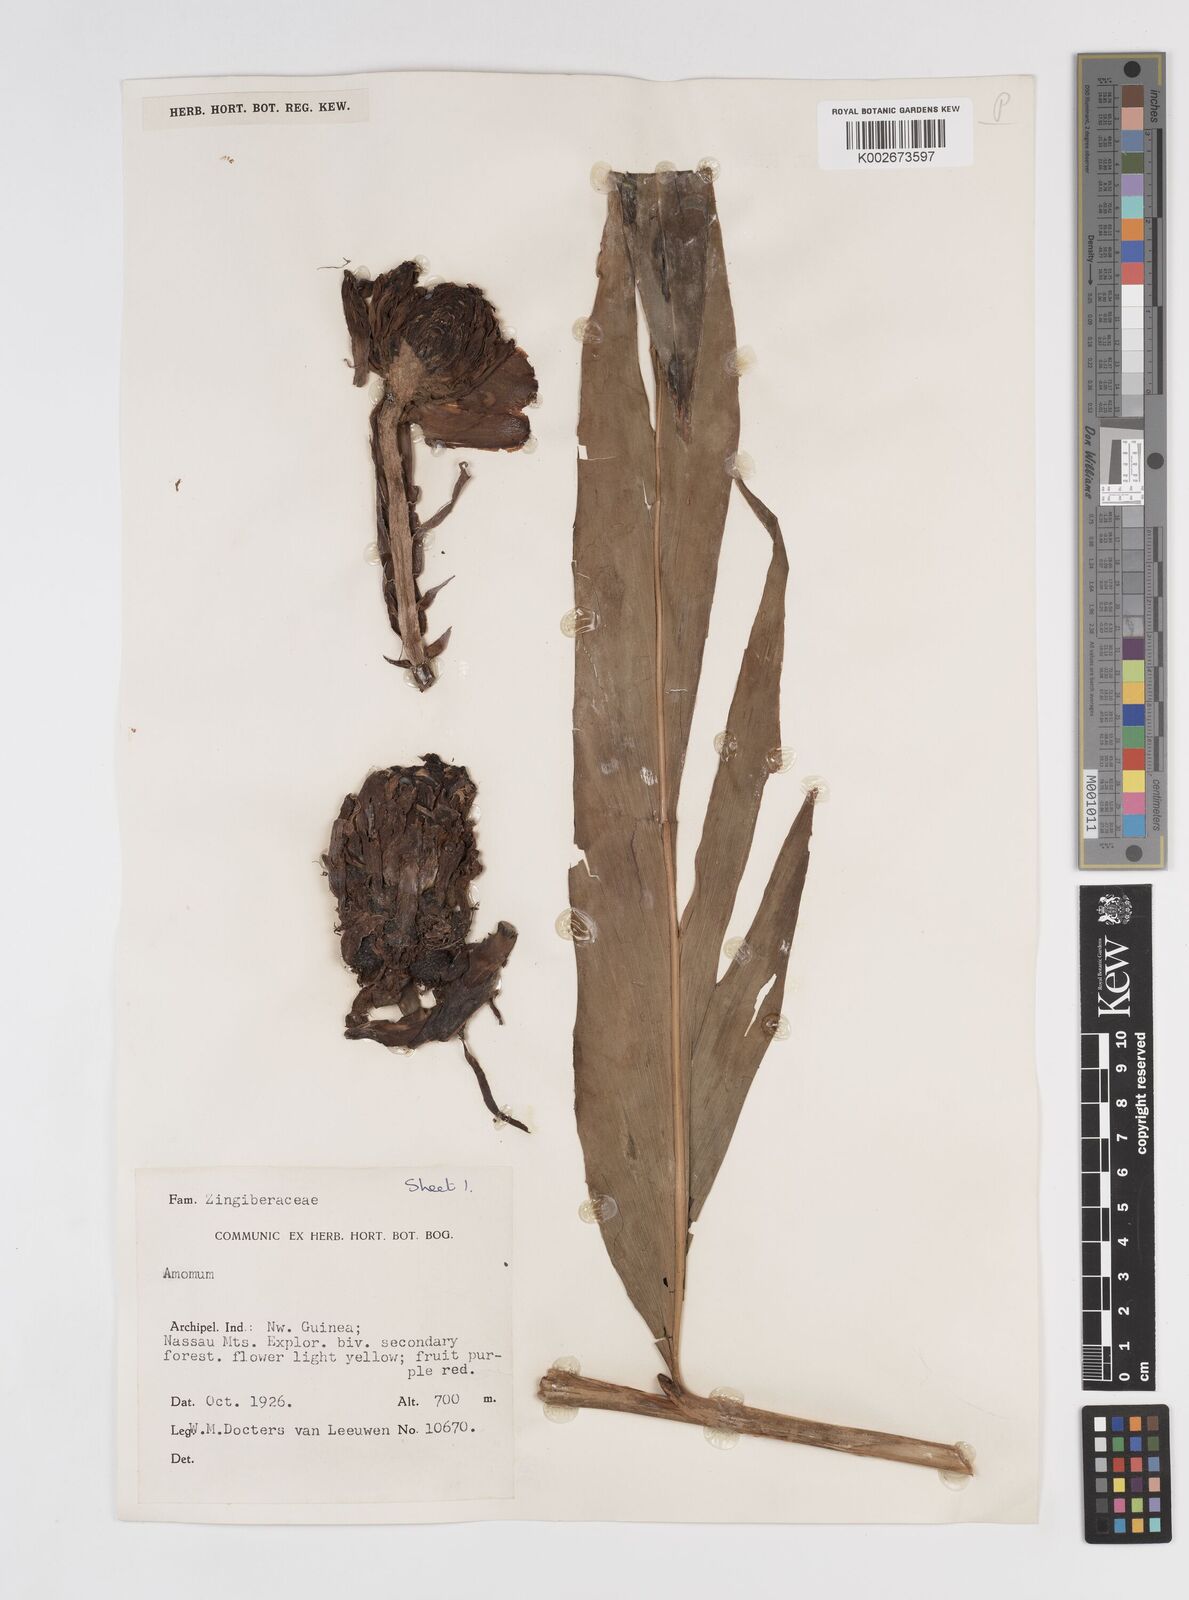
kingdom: Plantae
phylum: Tracheophyta
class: Liliopsida
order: Zingiberales
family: Zingiberaceae
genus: Amomum
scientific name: Amomum
